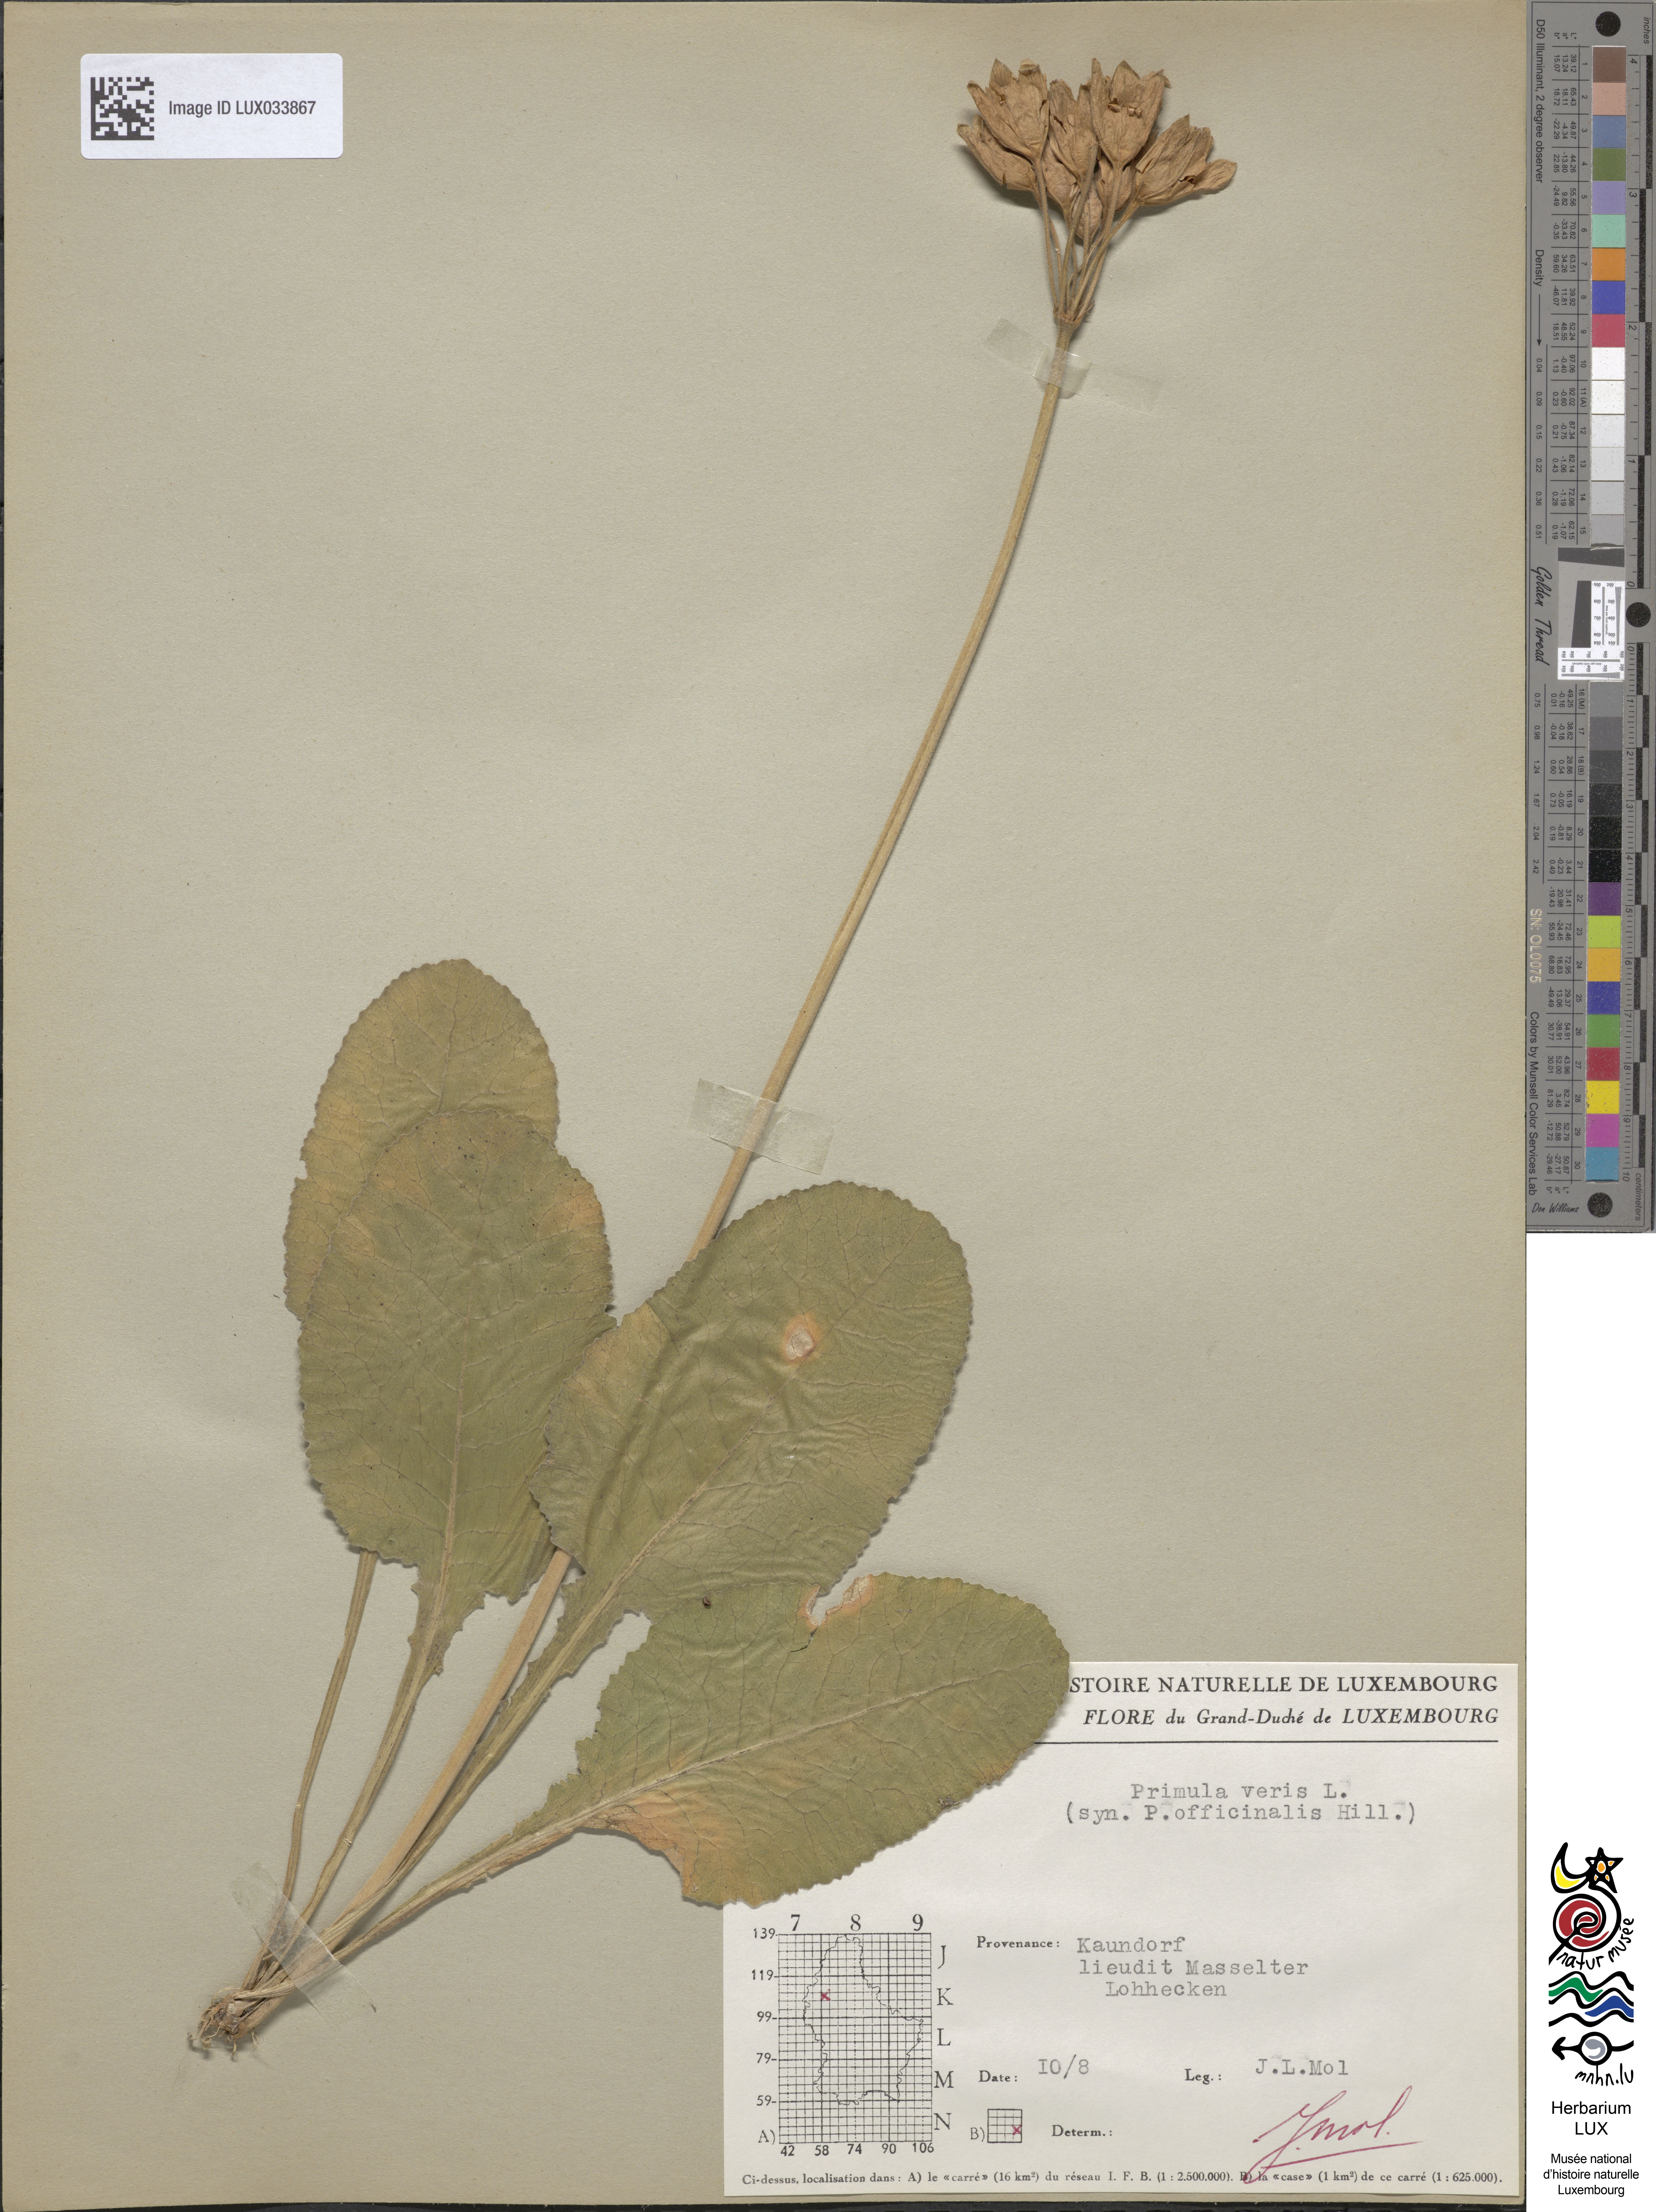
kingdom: Plantae
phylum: Tracheophyta
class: Magnoliopsida
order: Ericales
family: Primulaceae
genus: Primula
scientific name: Primula veris
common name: Cowslip
